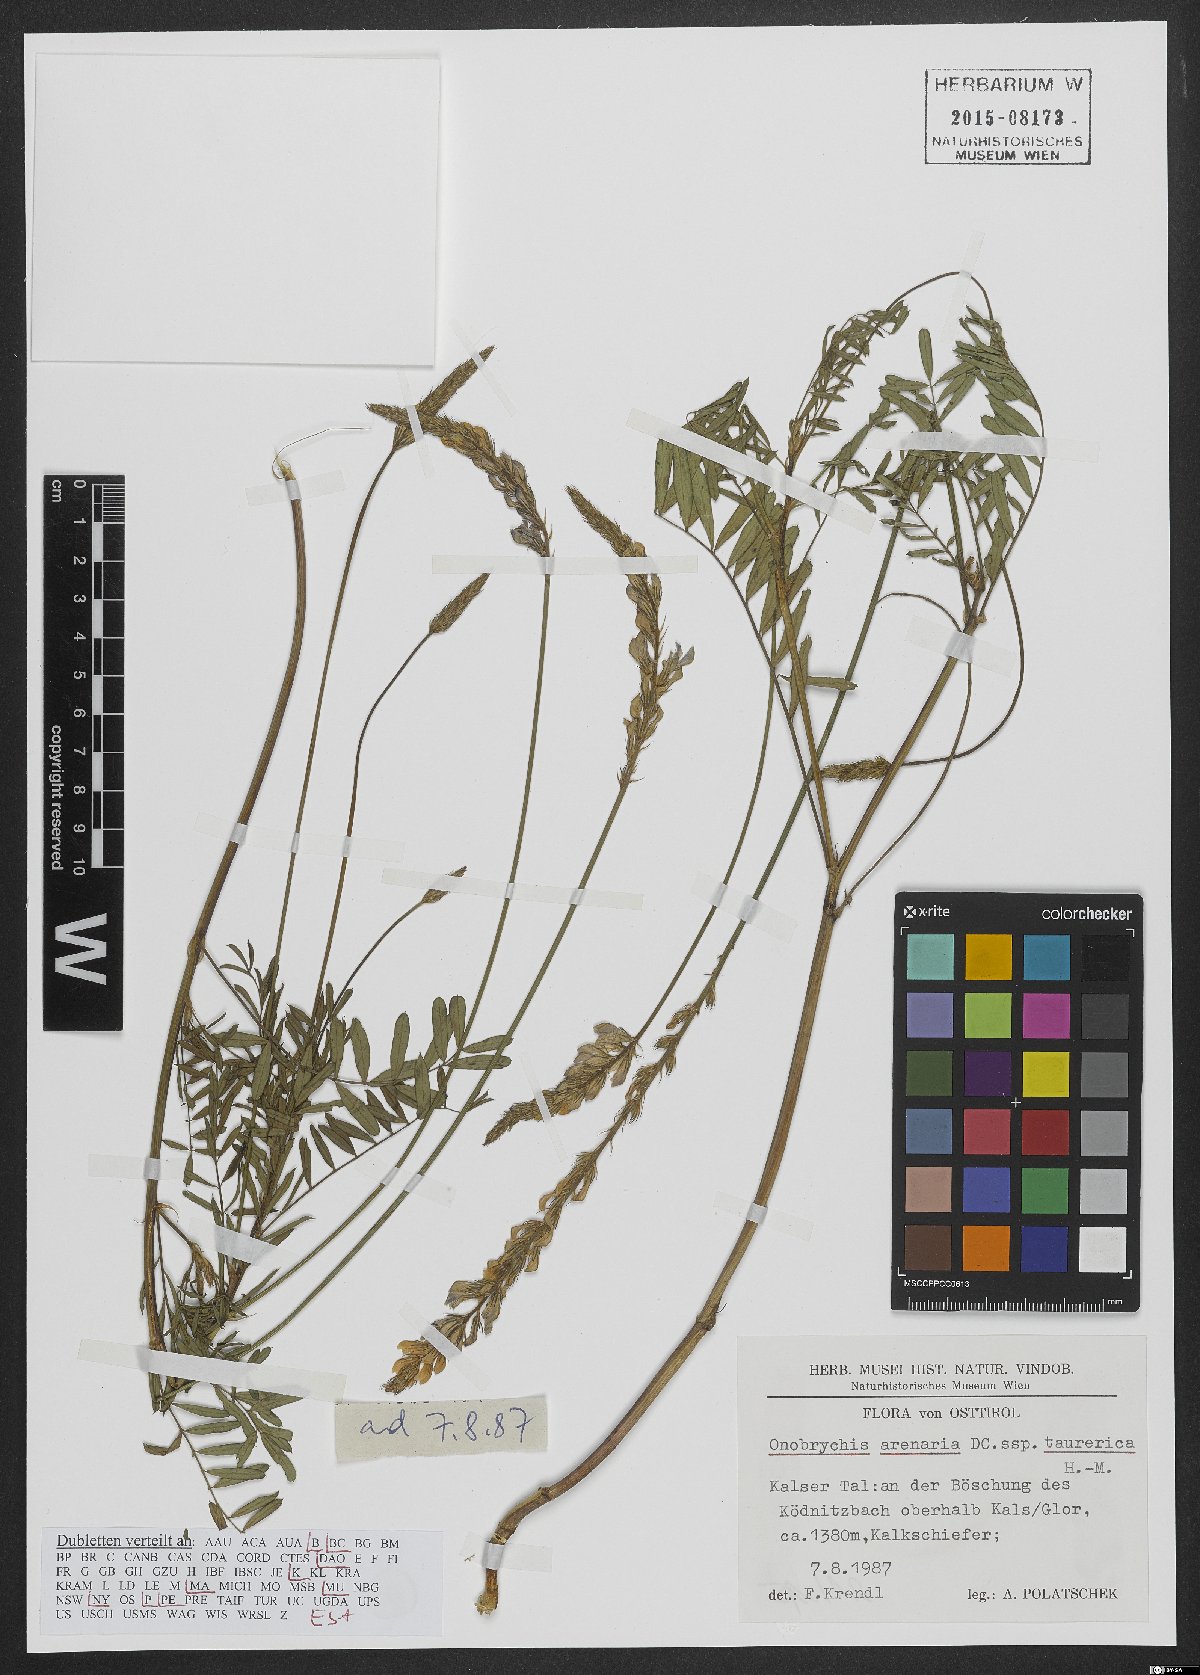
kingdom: Plantae
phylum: Tracheophyta
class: Magnoliopsida
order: Fabales
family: Fabaceae
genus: Onobrychis
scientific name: Onobrychis arenaria
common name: Sand esparcet
